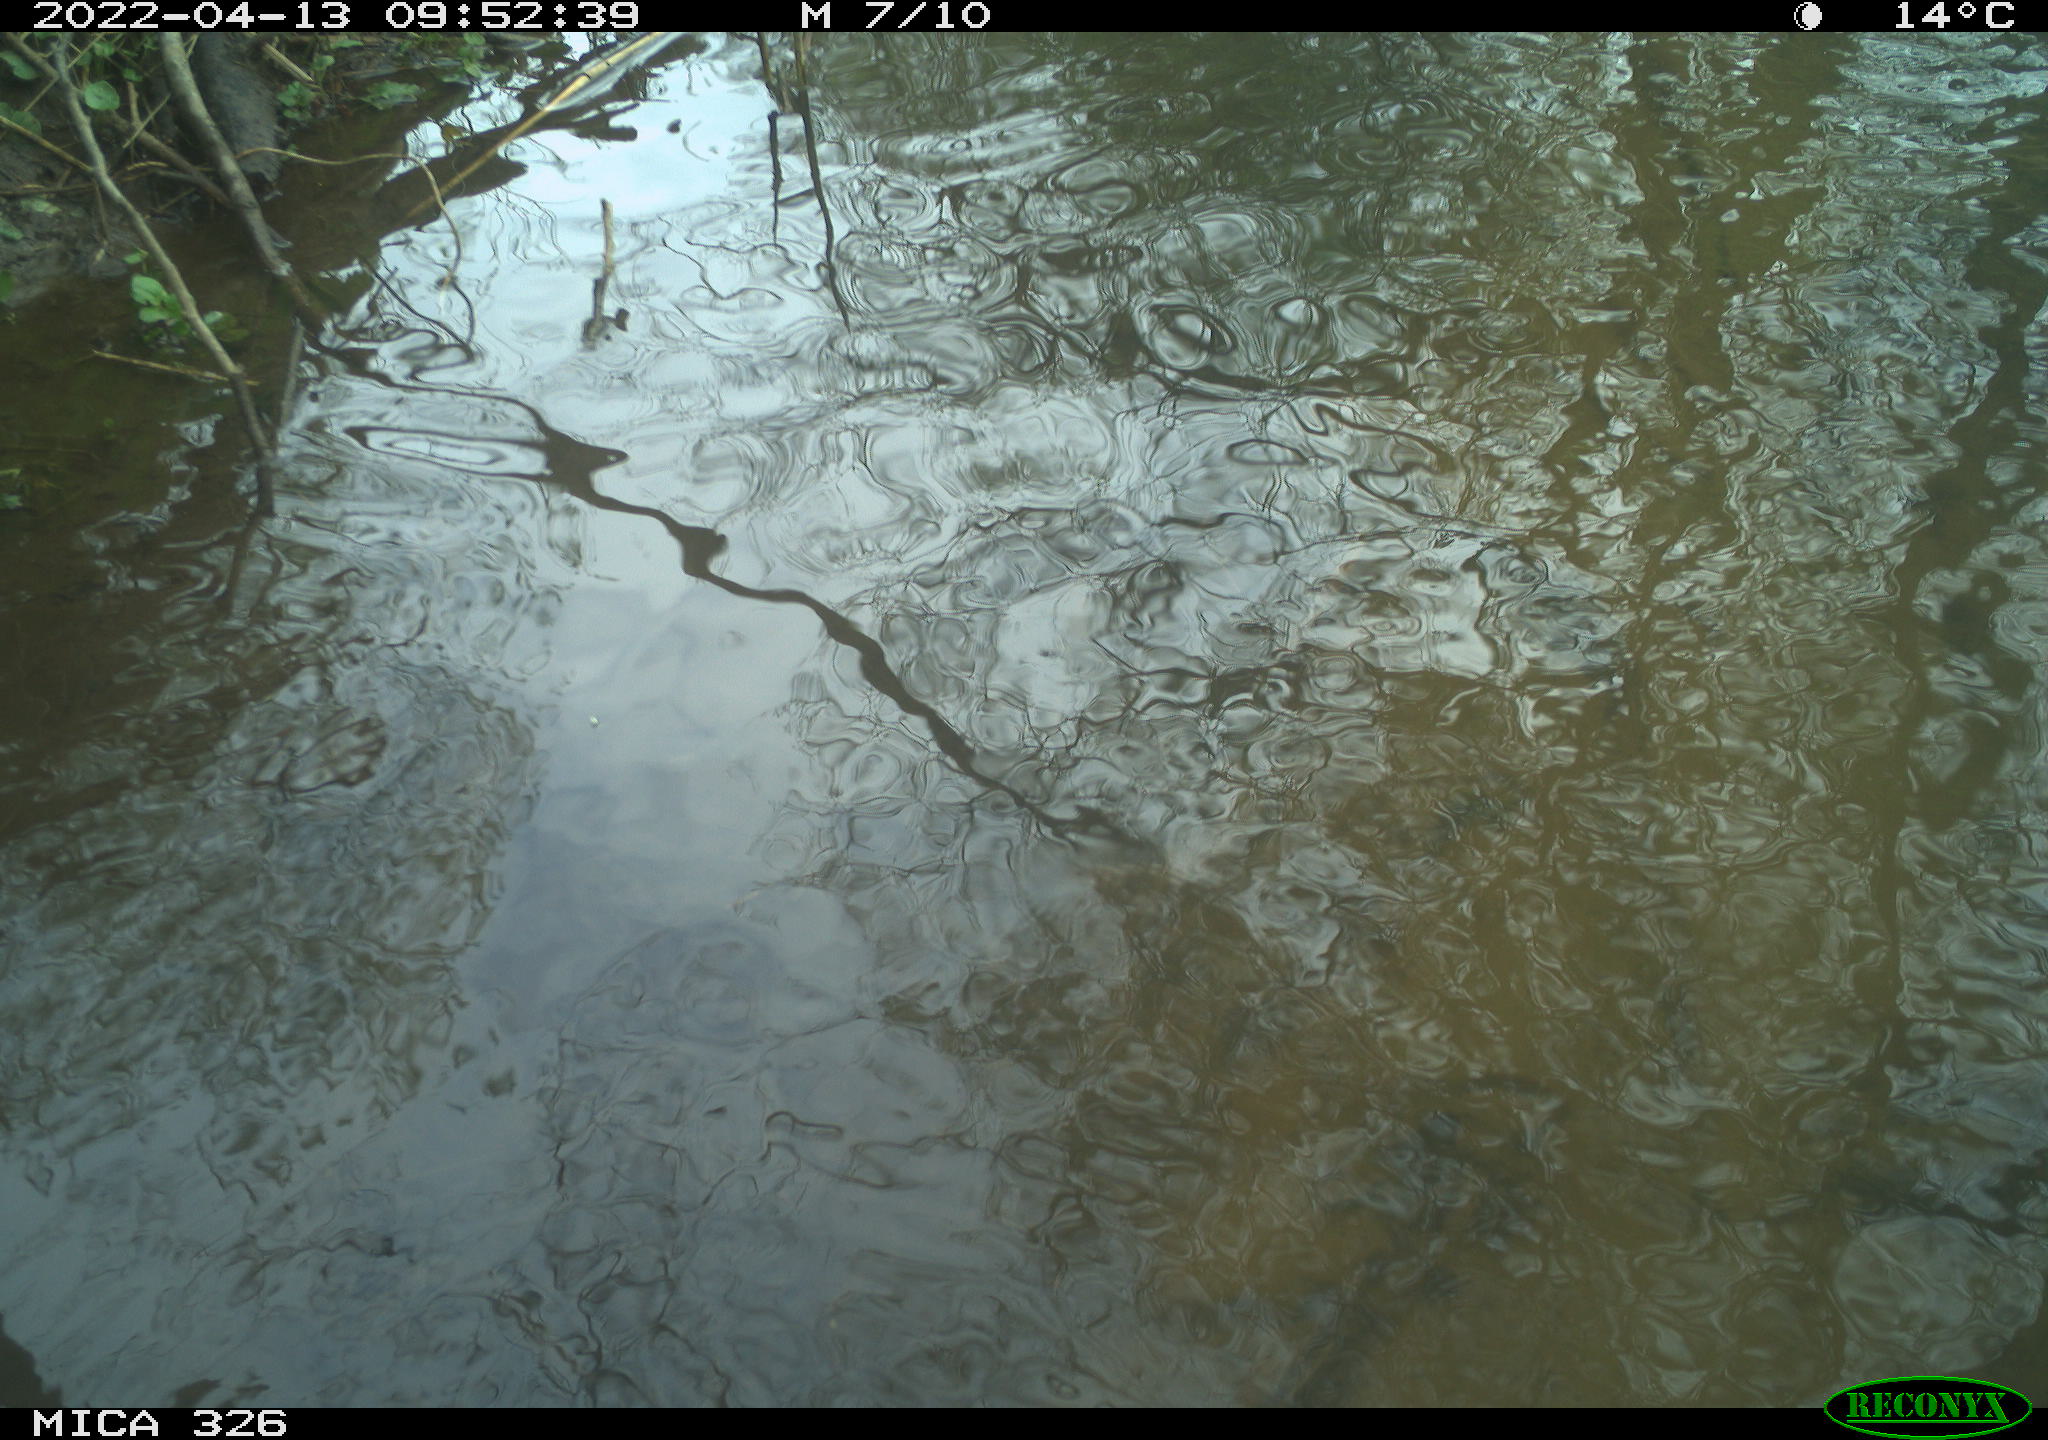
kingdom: Animalia
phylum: Chordata
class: Mammalia
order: Rodentia
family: Cricetidae
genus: Ondatra
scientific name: Ondatra zibethicus
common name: Muskrat
